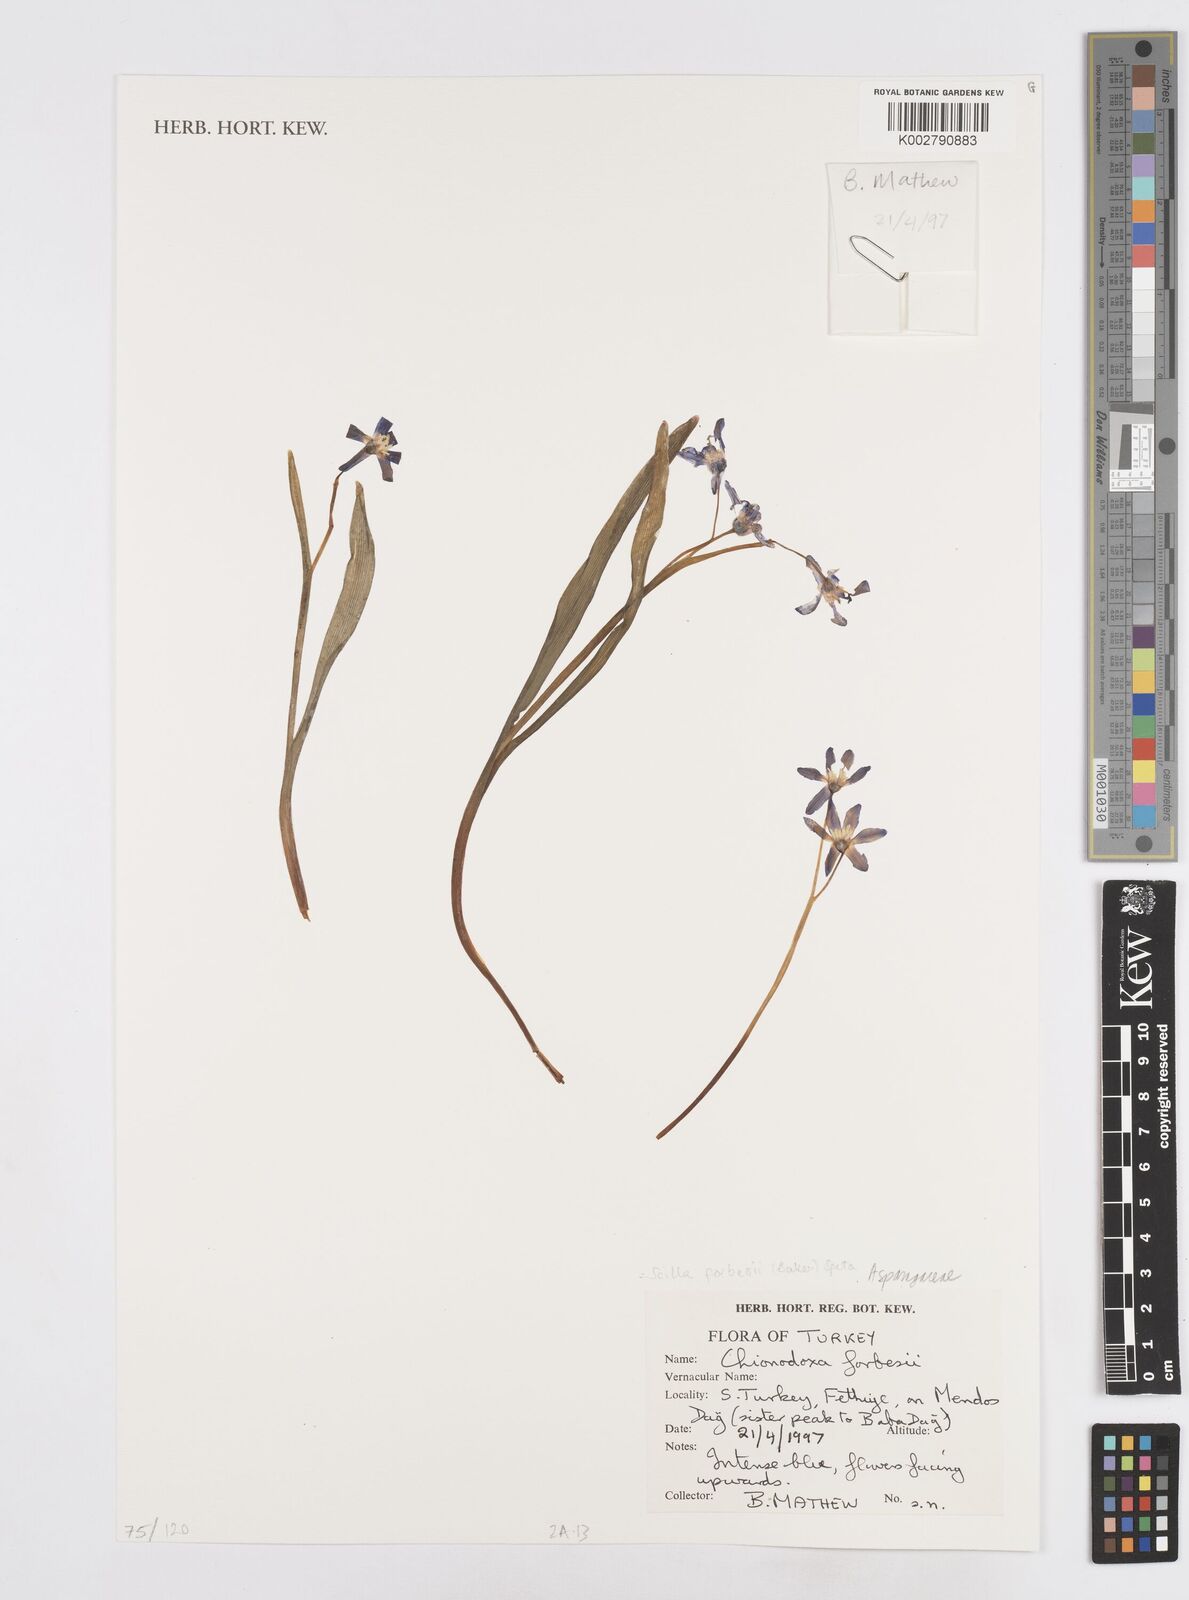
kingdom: Plantae
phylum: Tracheophyta
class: Liliopsida
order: Asparagales
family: Asparagaceae
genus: Scilla
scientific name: Scilla forbesii
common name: Glory-of-the-snow
